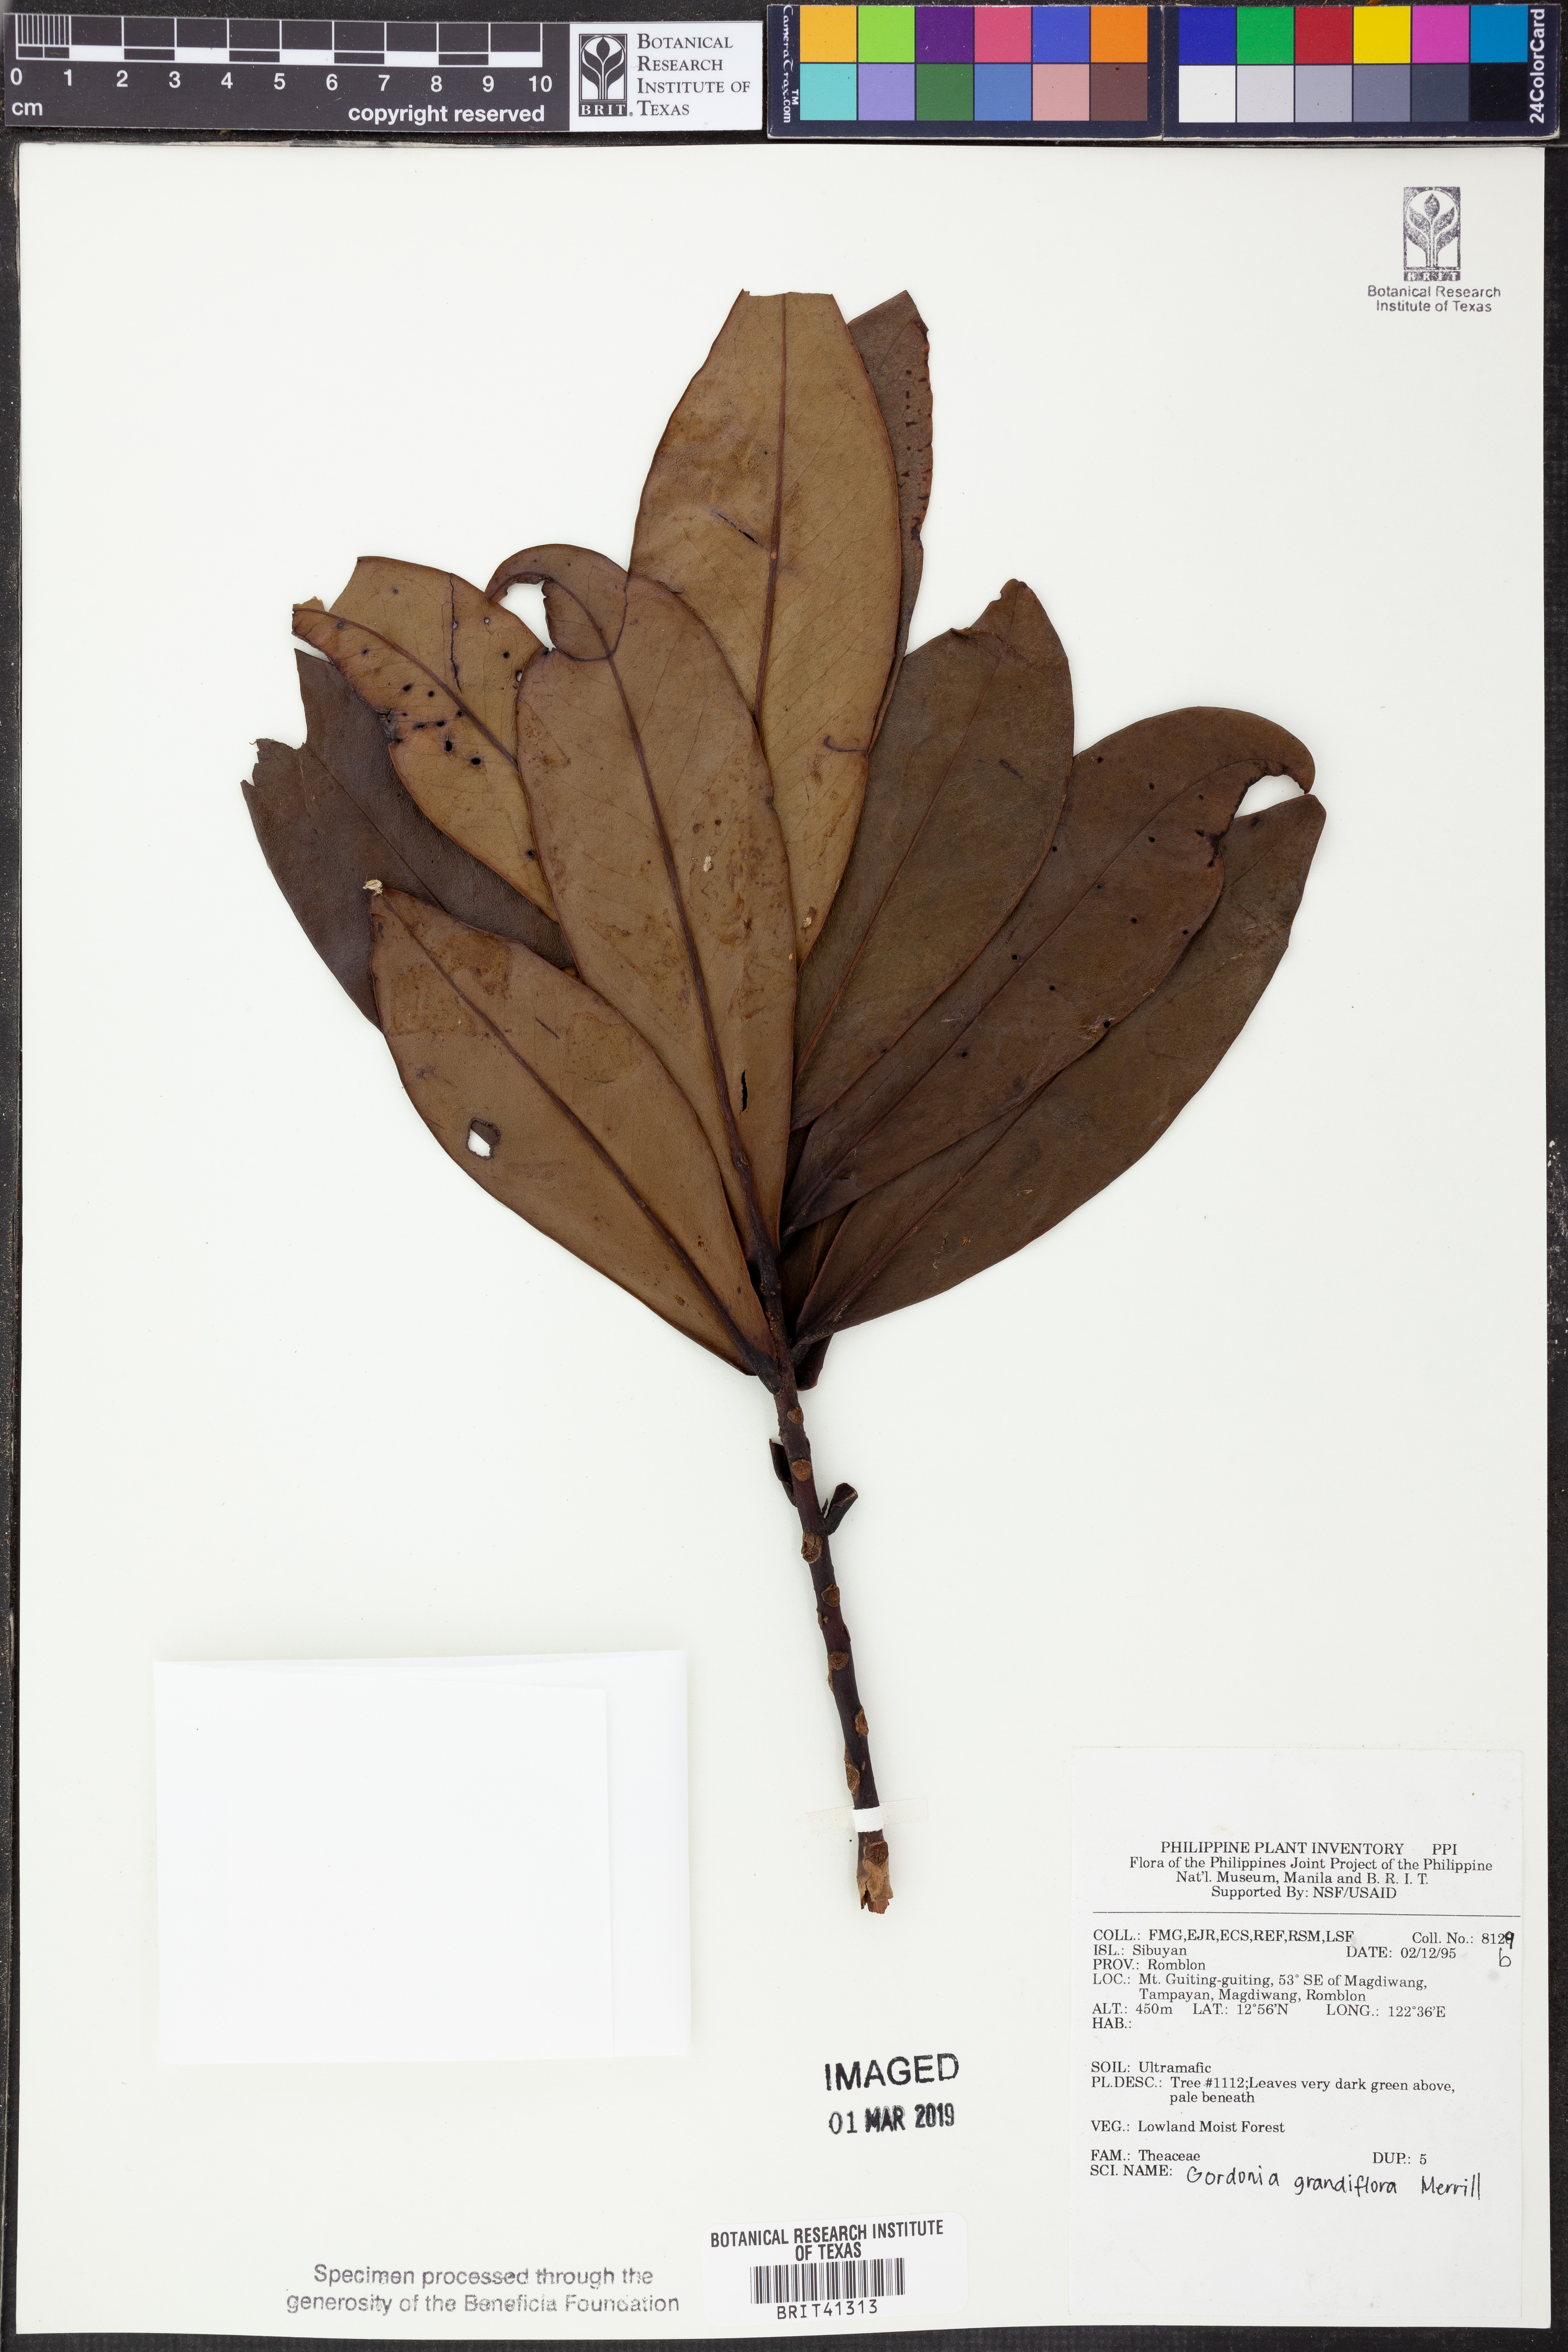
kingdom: Plantae
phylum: Tracheophyta
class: Magnoliopsida
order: Ericales
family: Theaceae
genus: Polyspora
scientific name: Polyspora grandiflora
